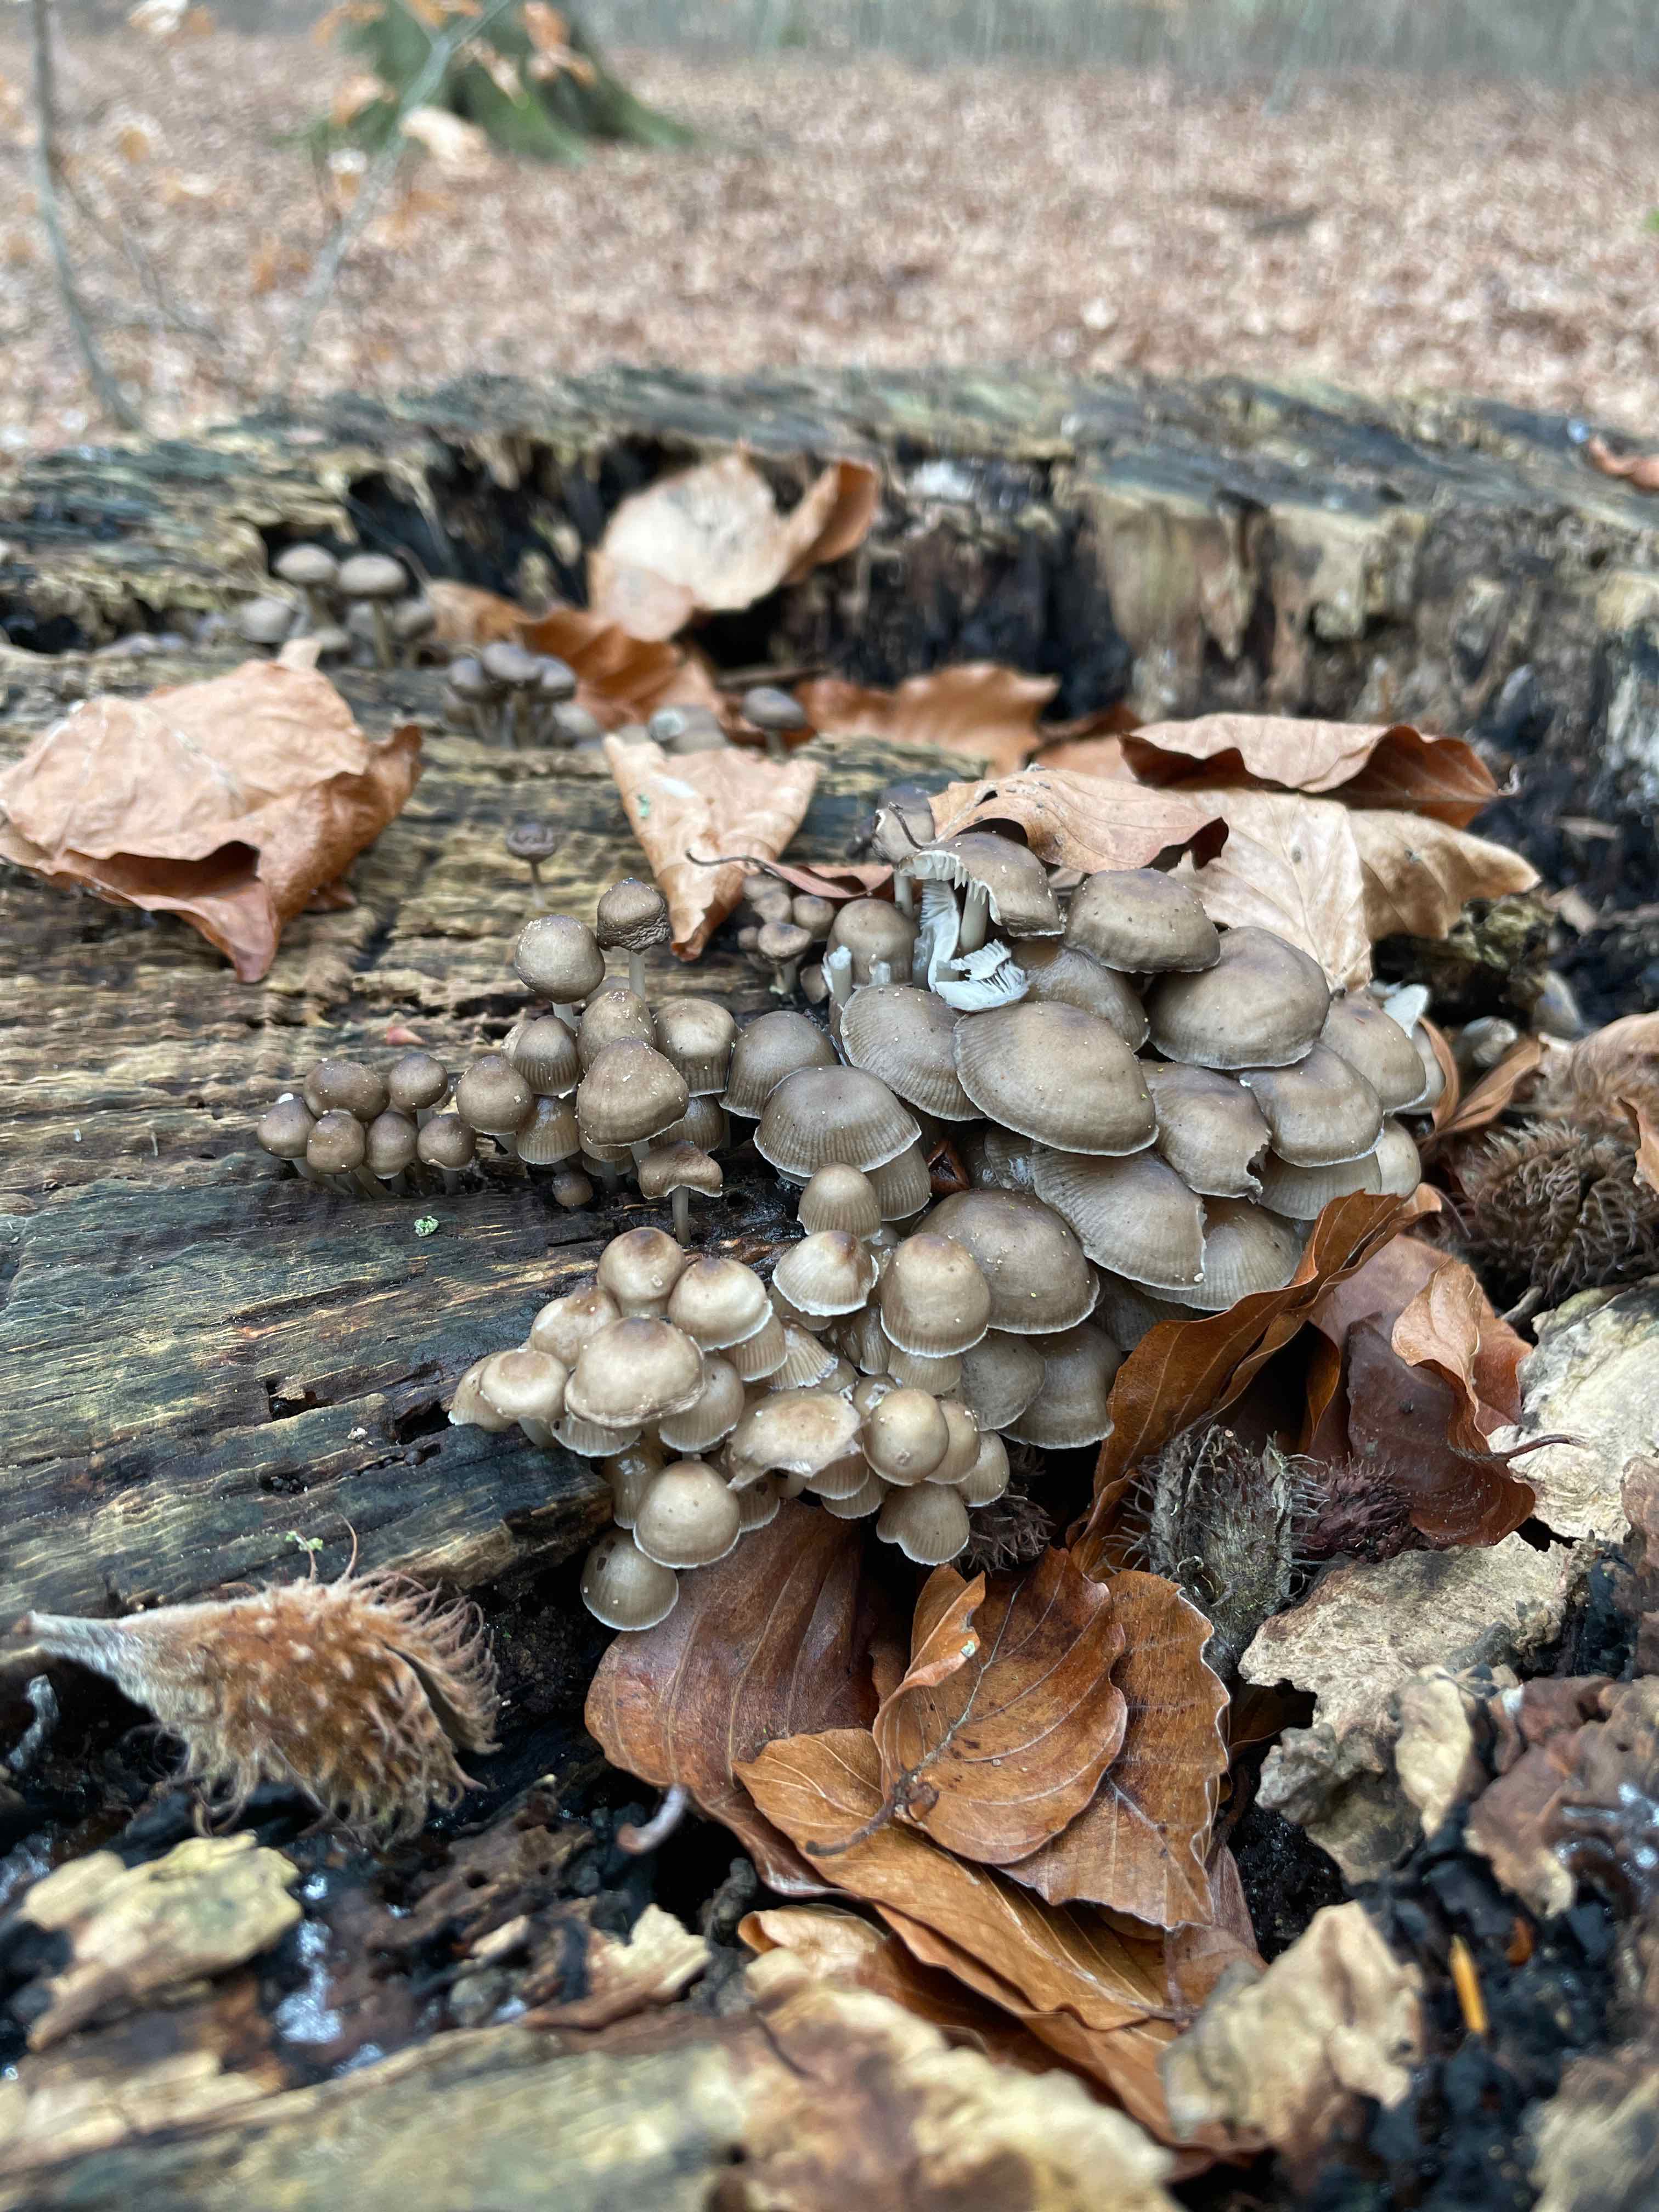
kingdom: Fungi
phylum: Basidiomycota
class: Agaricomycetes
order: Agaricales
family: Mycenaceae
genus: Mycena
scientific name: Mycena tintinnabulum
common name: vinter-huesvamp
